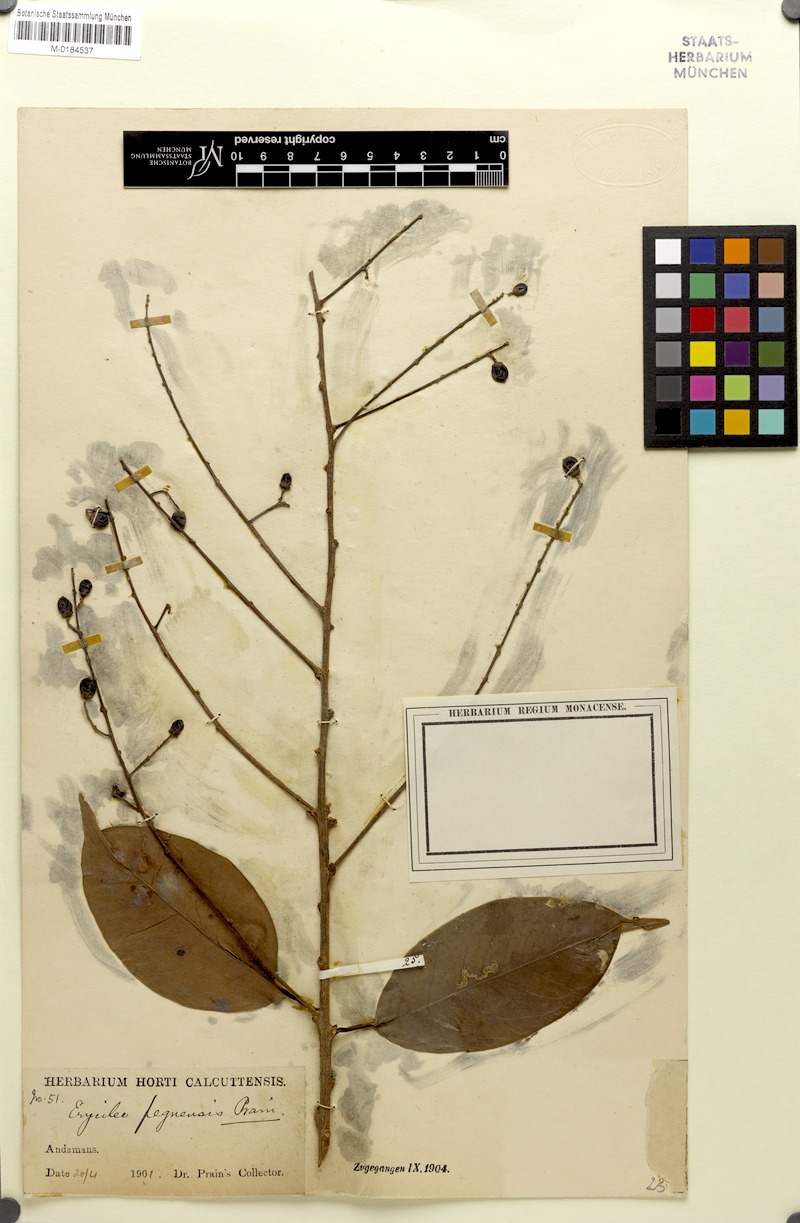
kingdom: Plantae
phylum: Tracheophyta
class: Magnoliopsida
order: Solanales
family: Convolvulaceae
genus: Argyreia
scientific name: Argyreia capitiformis
